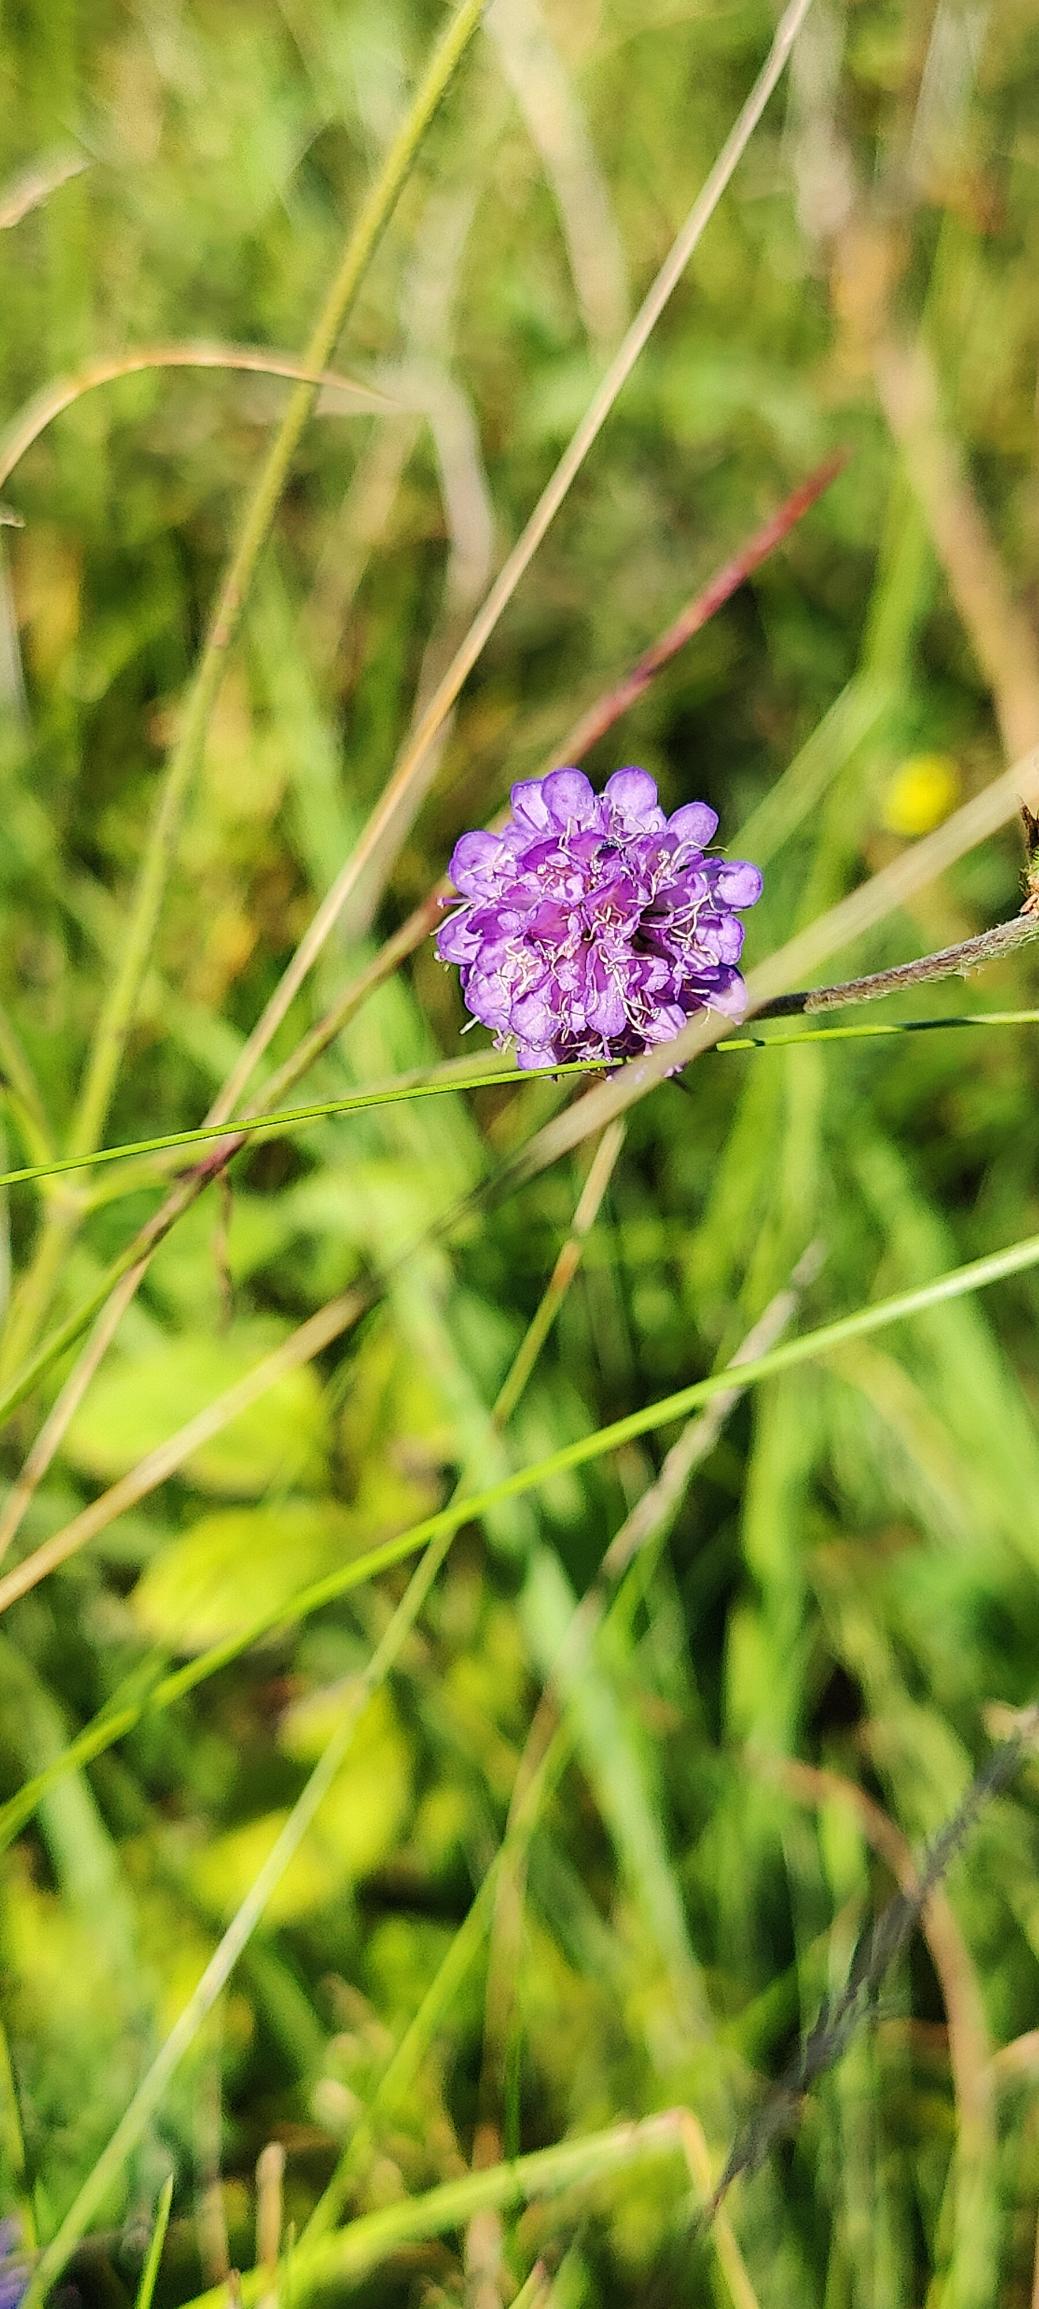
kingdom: Plantae
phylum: Tracheophyta
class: Magnoliopsida
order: Dipsacales
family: Caprifoliaceae
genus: Succisa
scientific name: Succisa pratensis
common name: Djævelsbid
